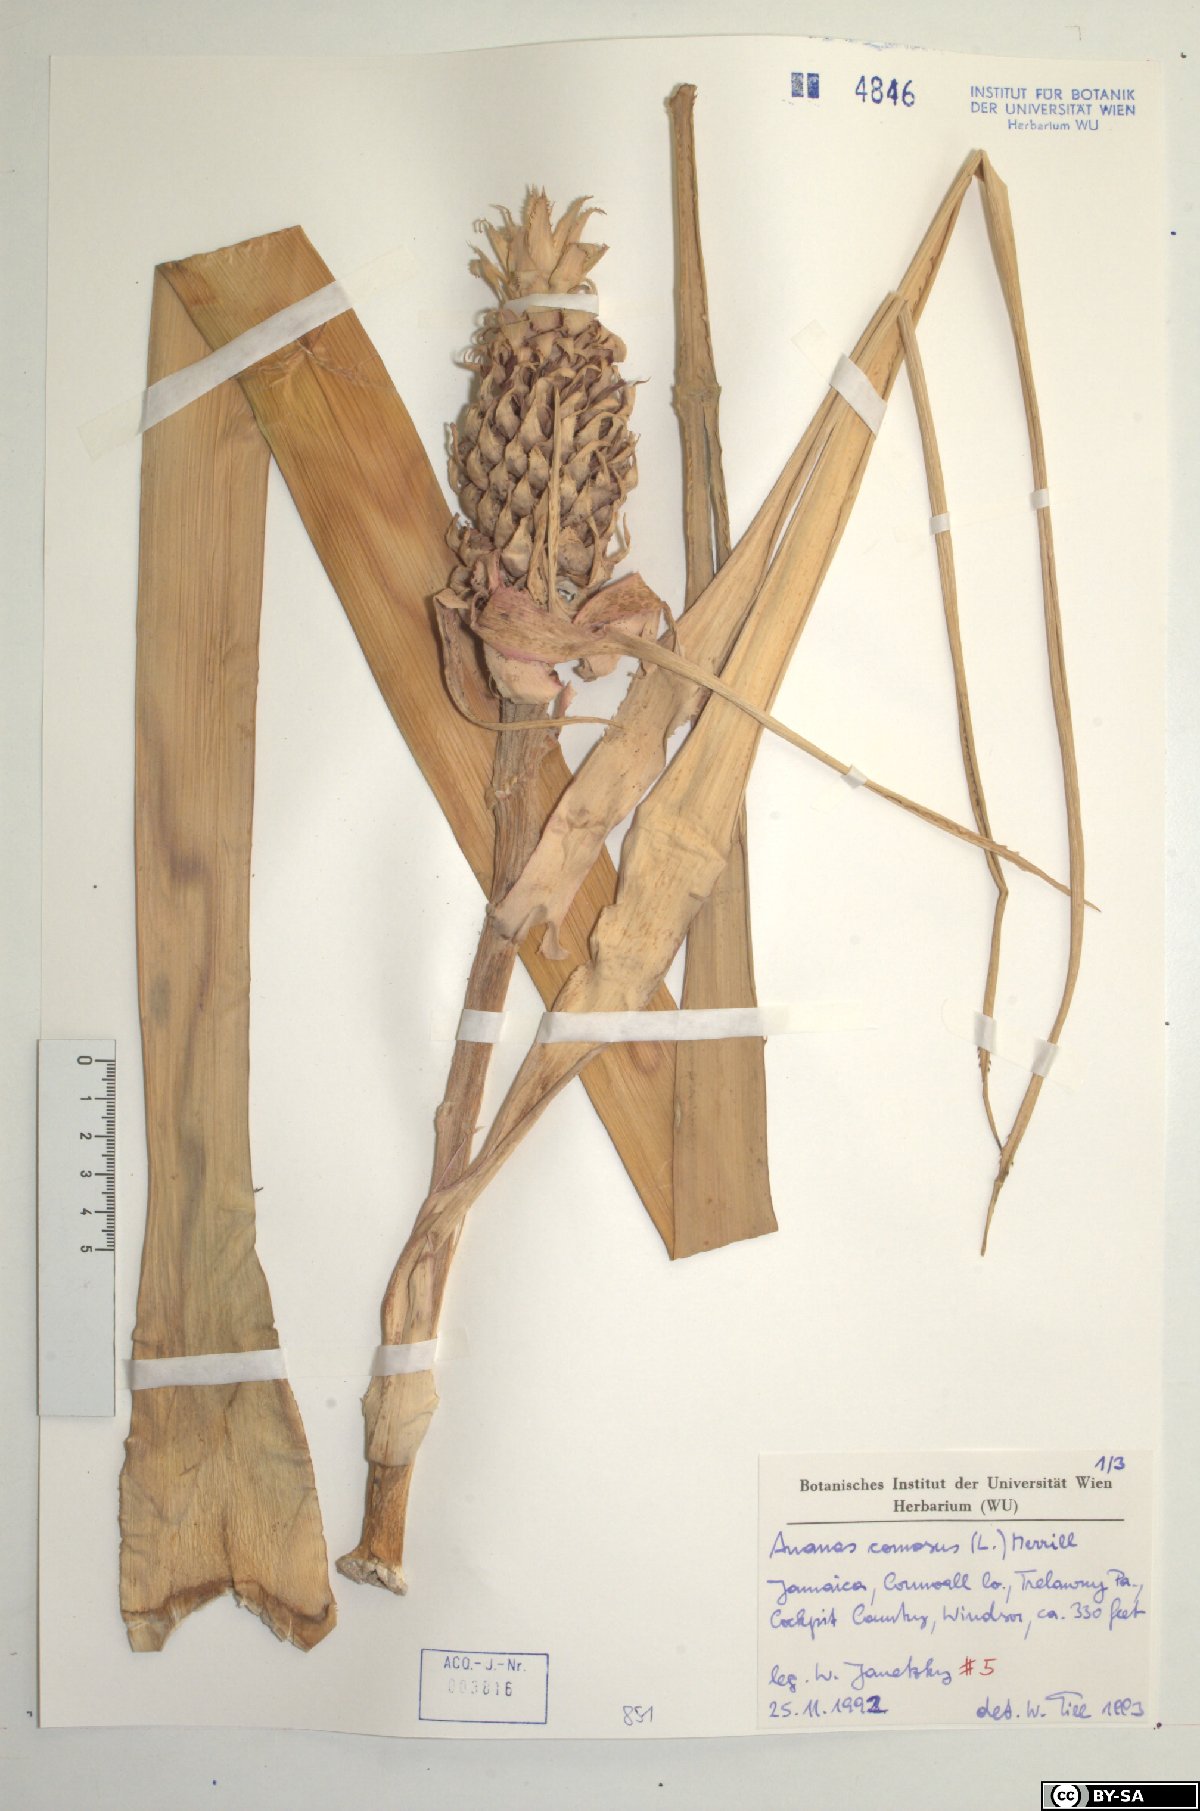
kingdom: Plantae
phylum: Tracheophyta
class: Liliopsida
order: Poales
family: Bromeliaceae
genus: Ananas
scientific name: Ananas comosus
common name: Pineapple
